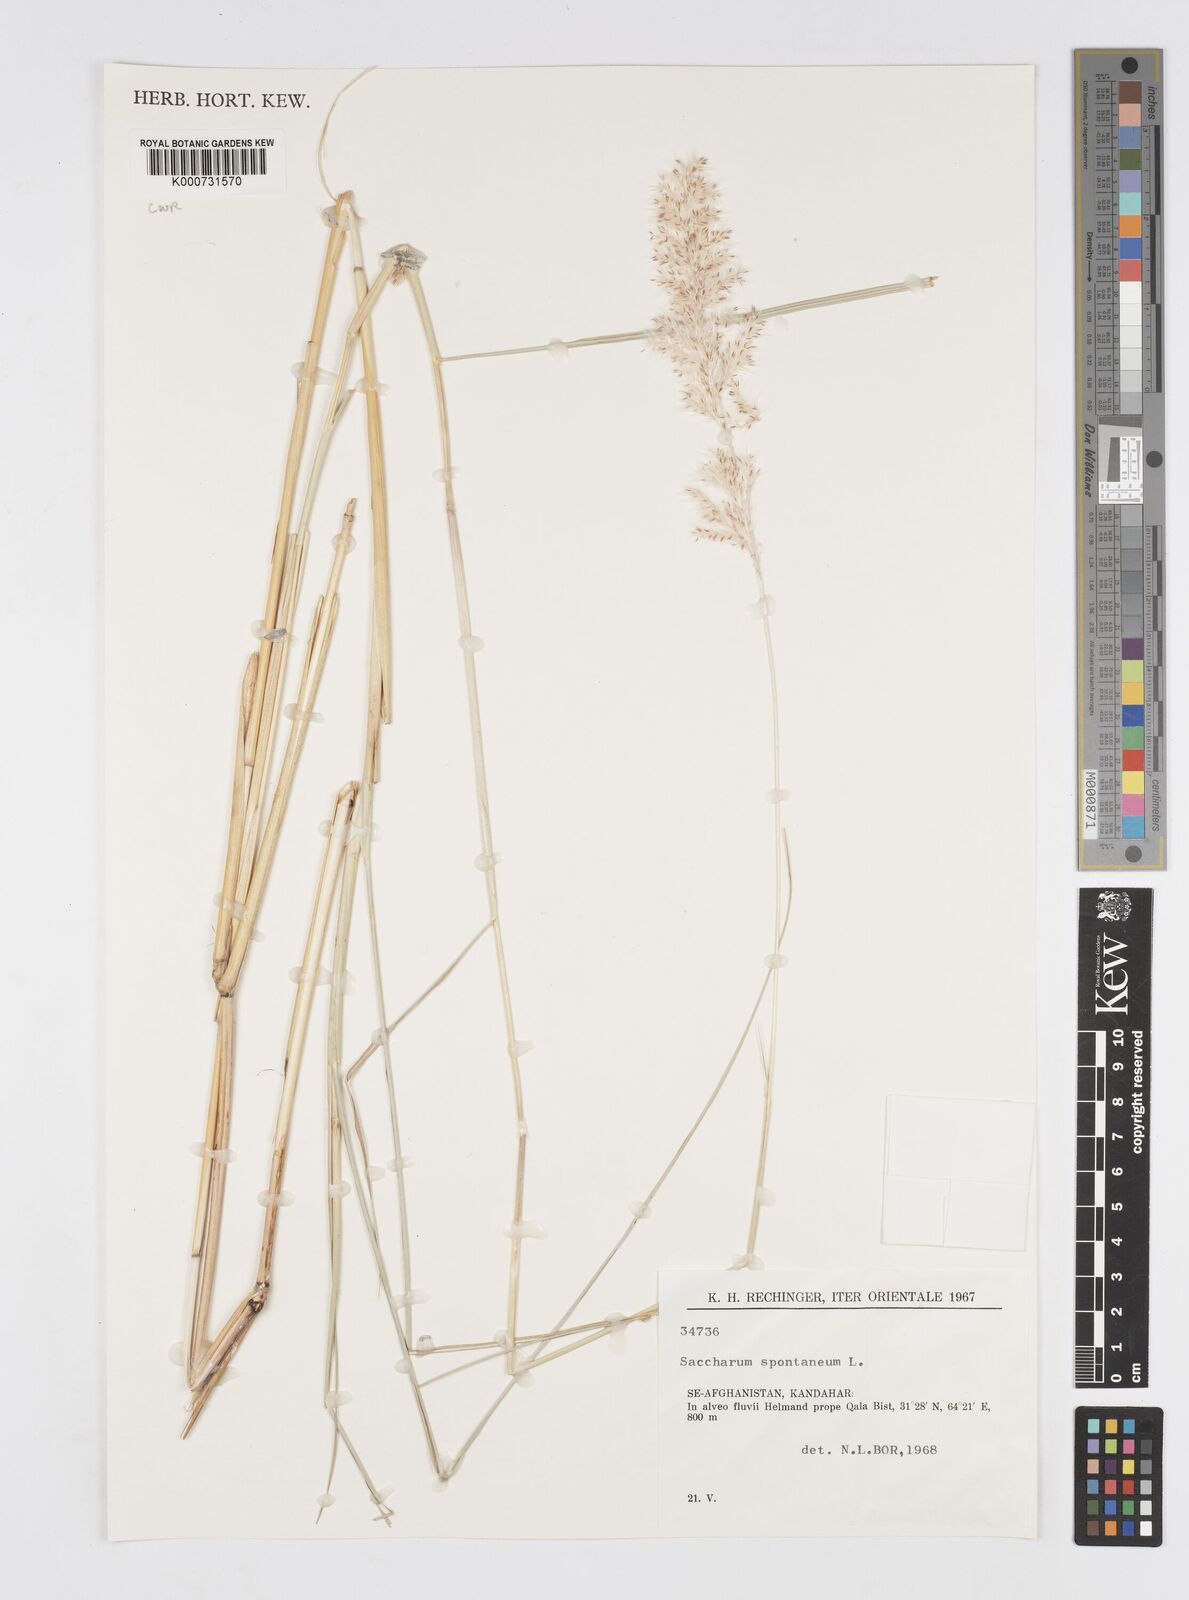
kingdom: Plantae
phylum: Tracheophyta
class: Liliopsida
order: Poales
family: Poaceae
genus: Saccharum
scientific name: Saccharum spontaneum
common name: Wild sugarcane
